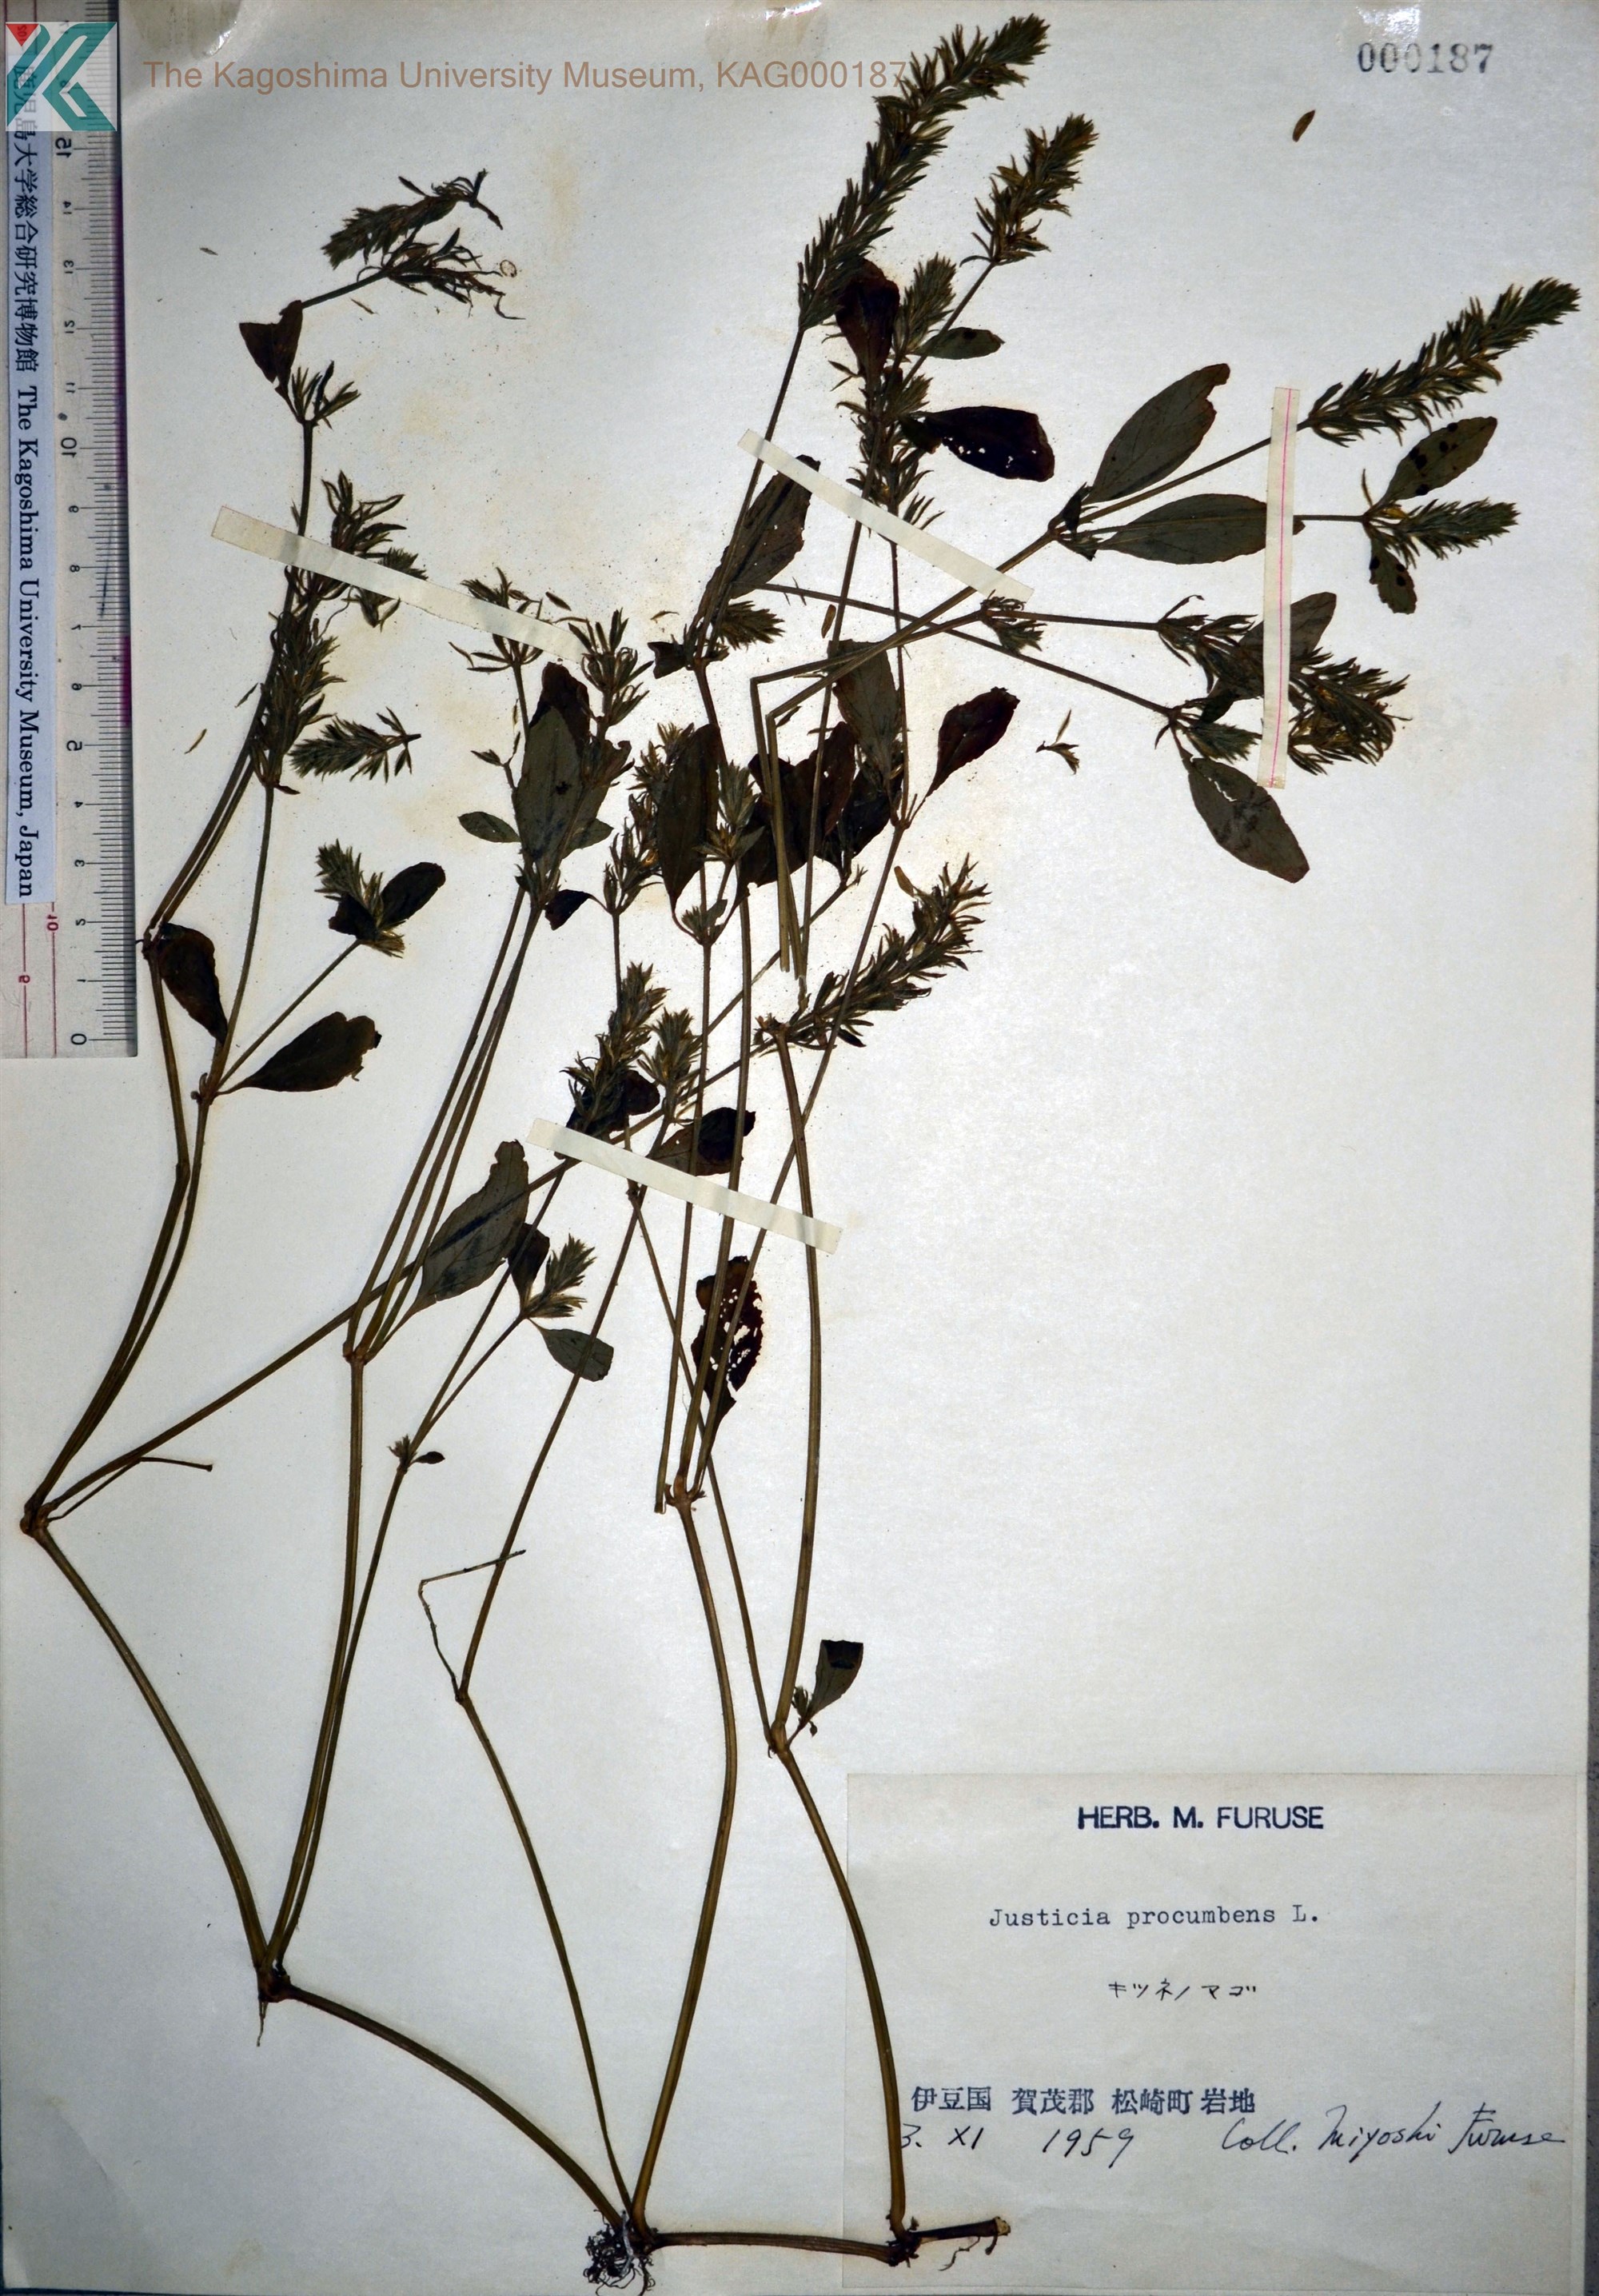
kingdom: Plantae
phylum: Tracheophyta
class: Magnoliopsida
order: Lamiales
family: Acanthaceae
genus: Rostellularia
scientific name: Rostellularia procumbens
